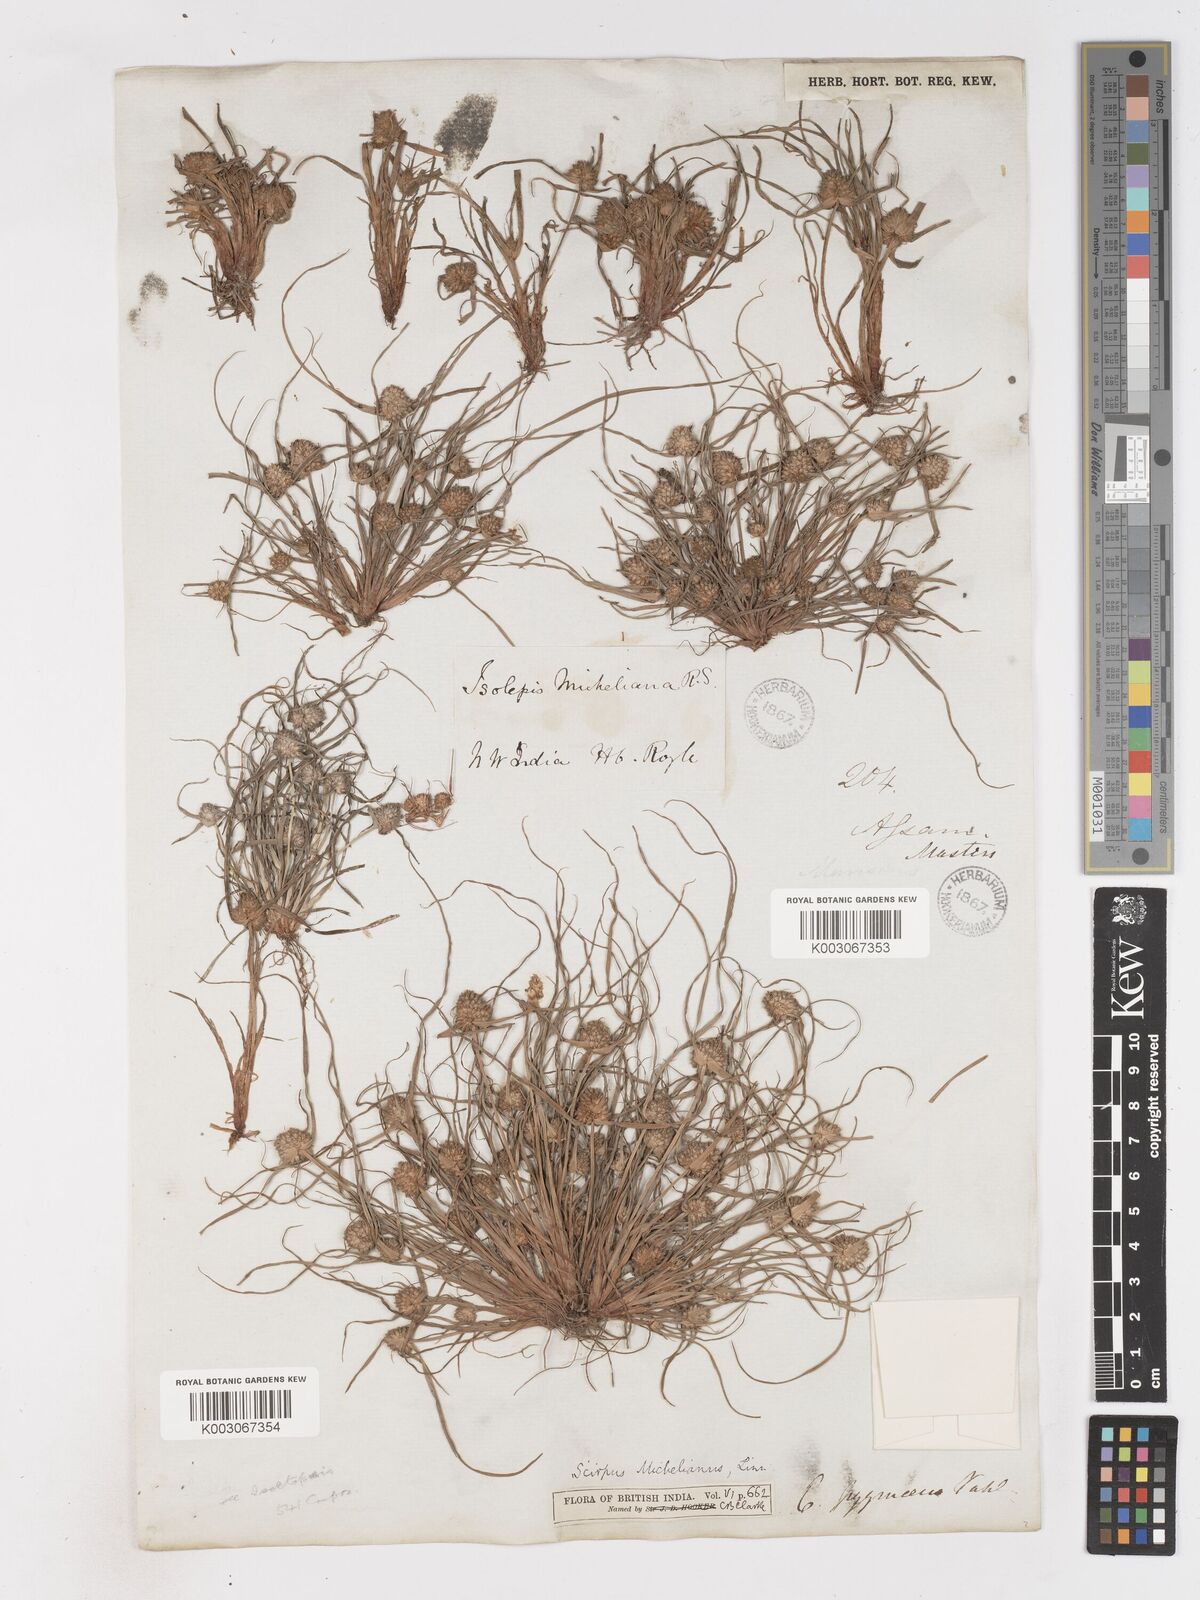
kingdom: Plantae
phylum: Tracheophyta
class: Liliopsida
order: Poales
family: Cyperaceae
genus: Cyperus
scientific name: Cyperus michelianus
